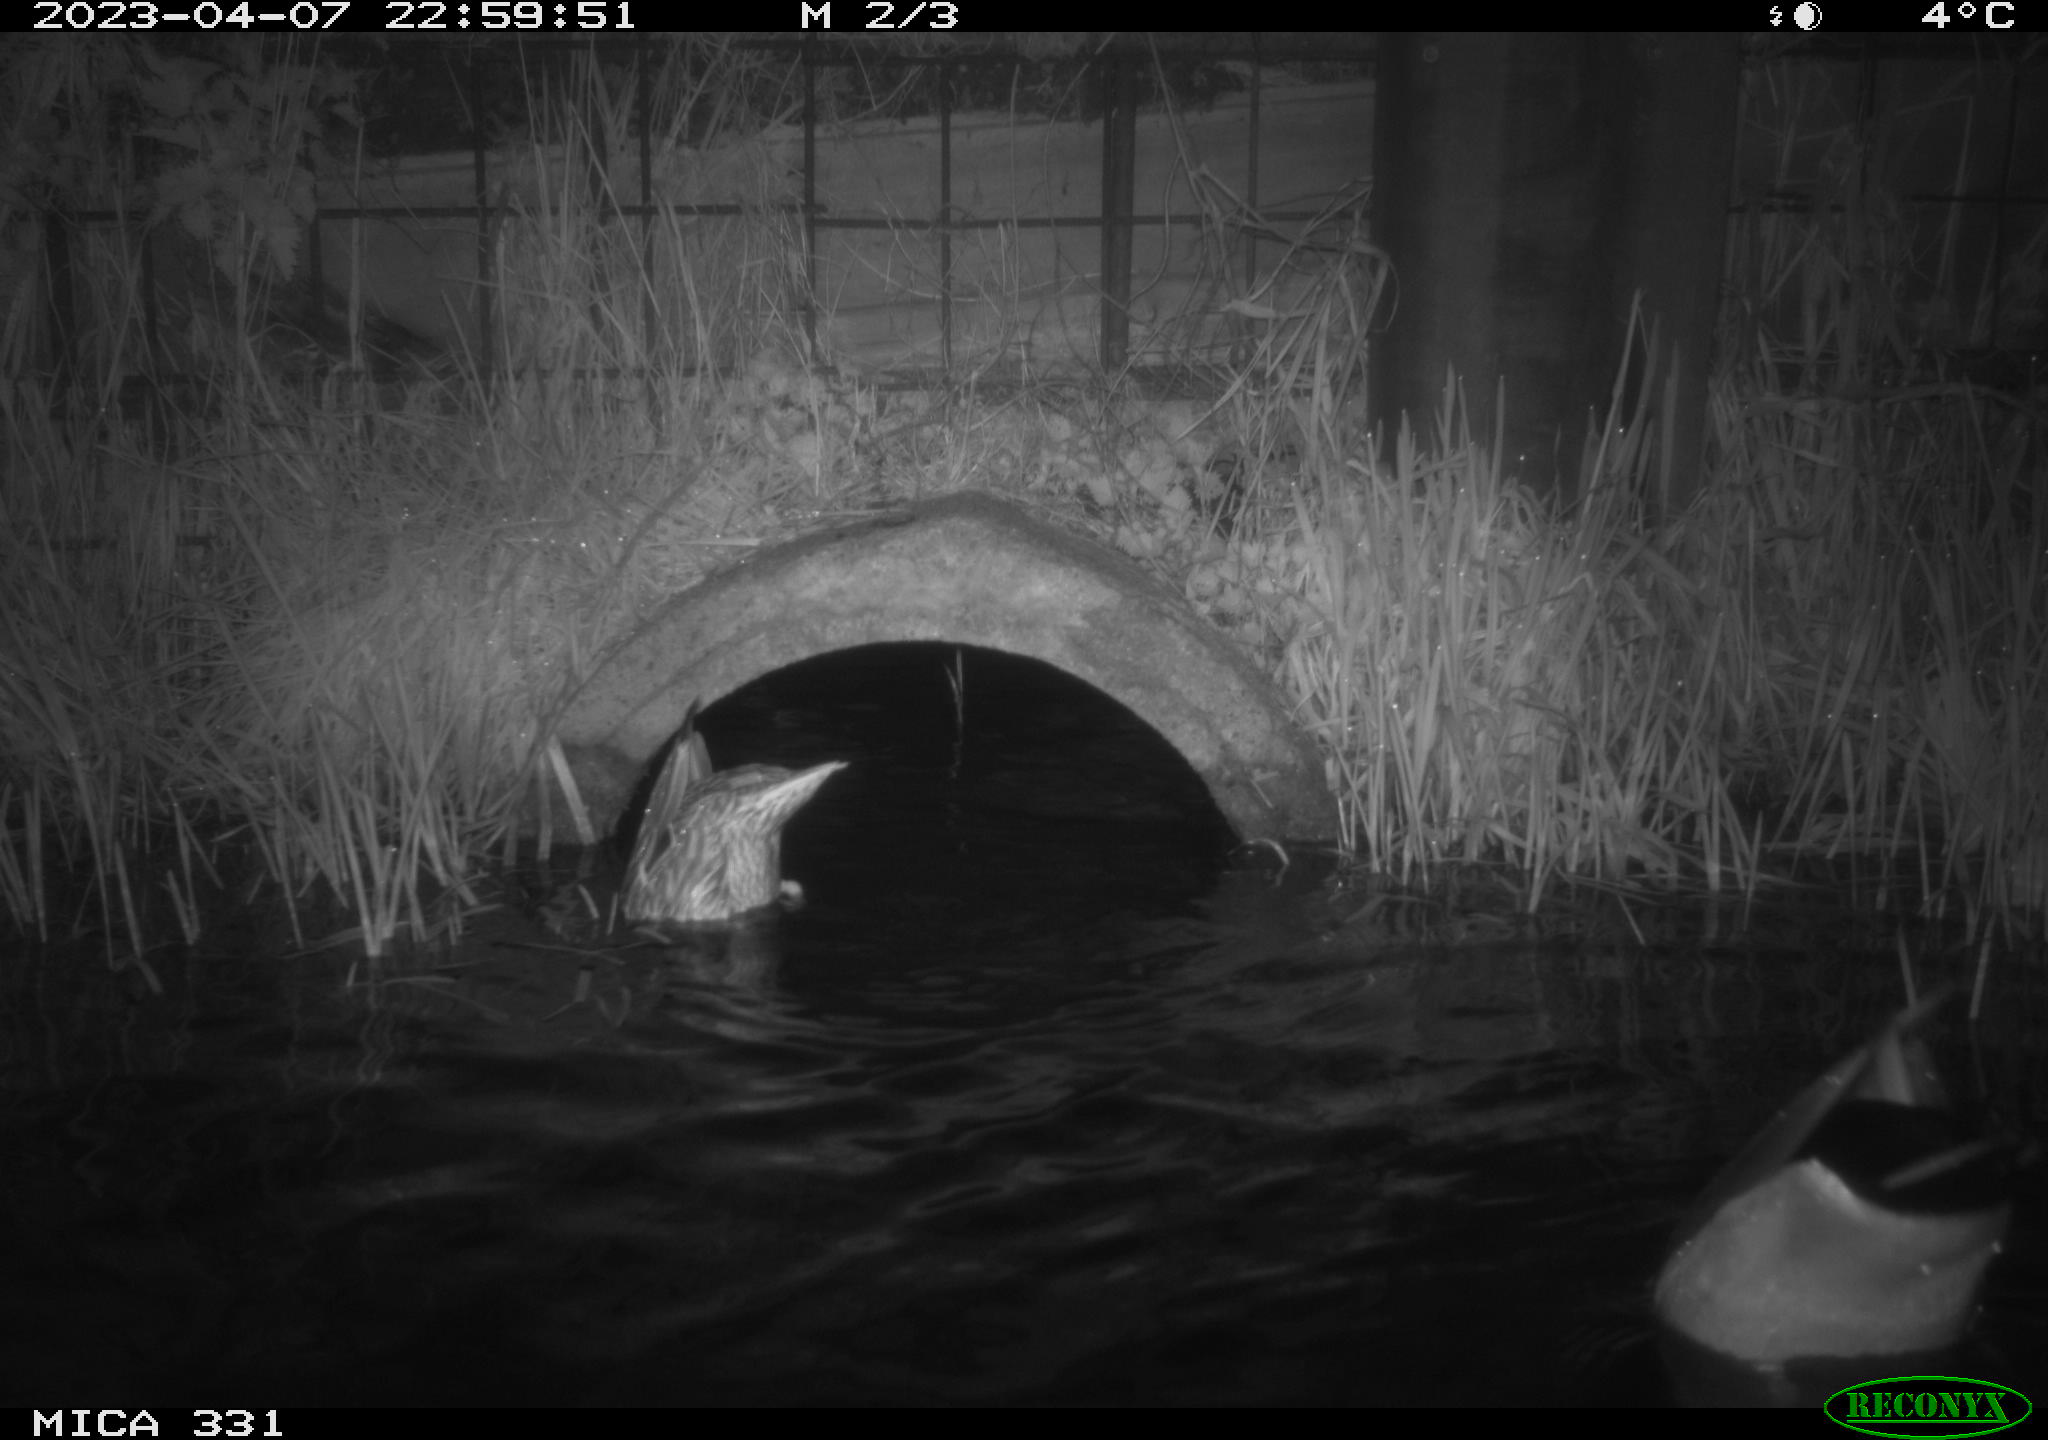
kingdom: Animalia
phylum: Chordata
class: Aves
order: Anseriformes
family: Anatidae
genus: Anas
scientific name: Anas platyrhynchos
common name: Mallard
